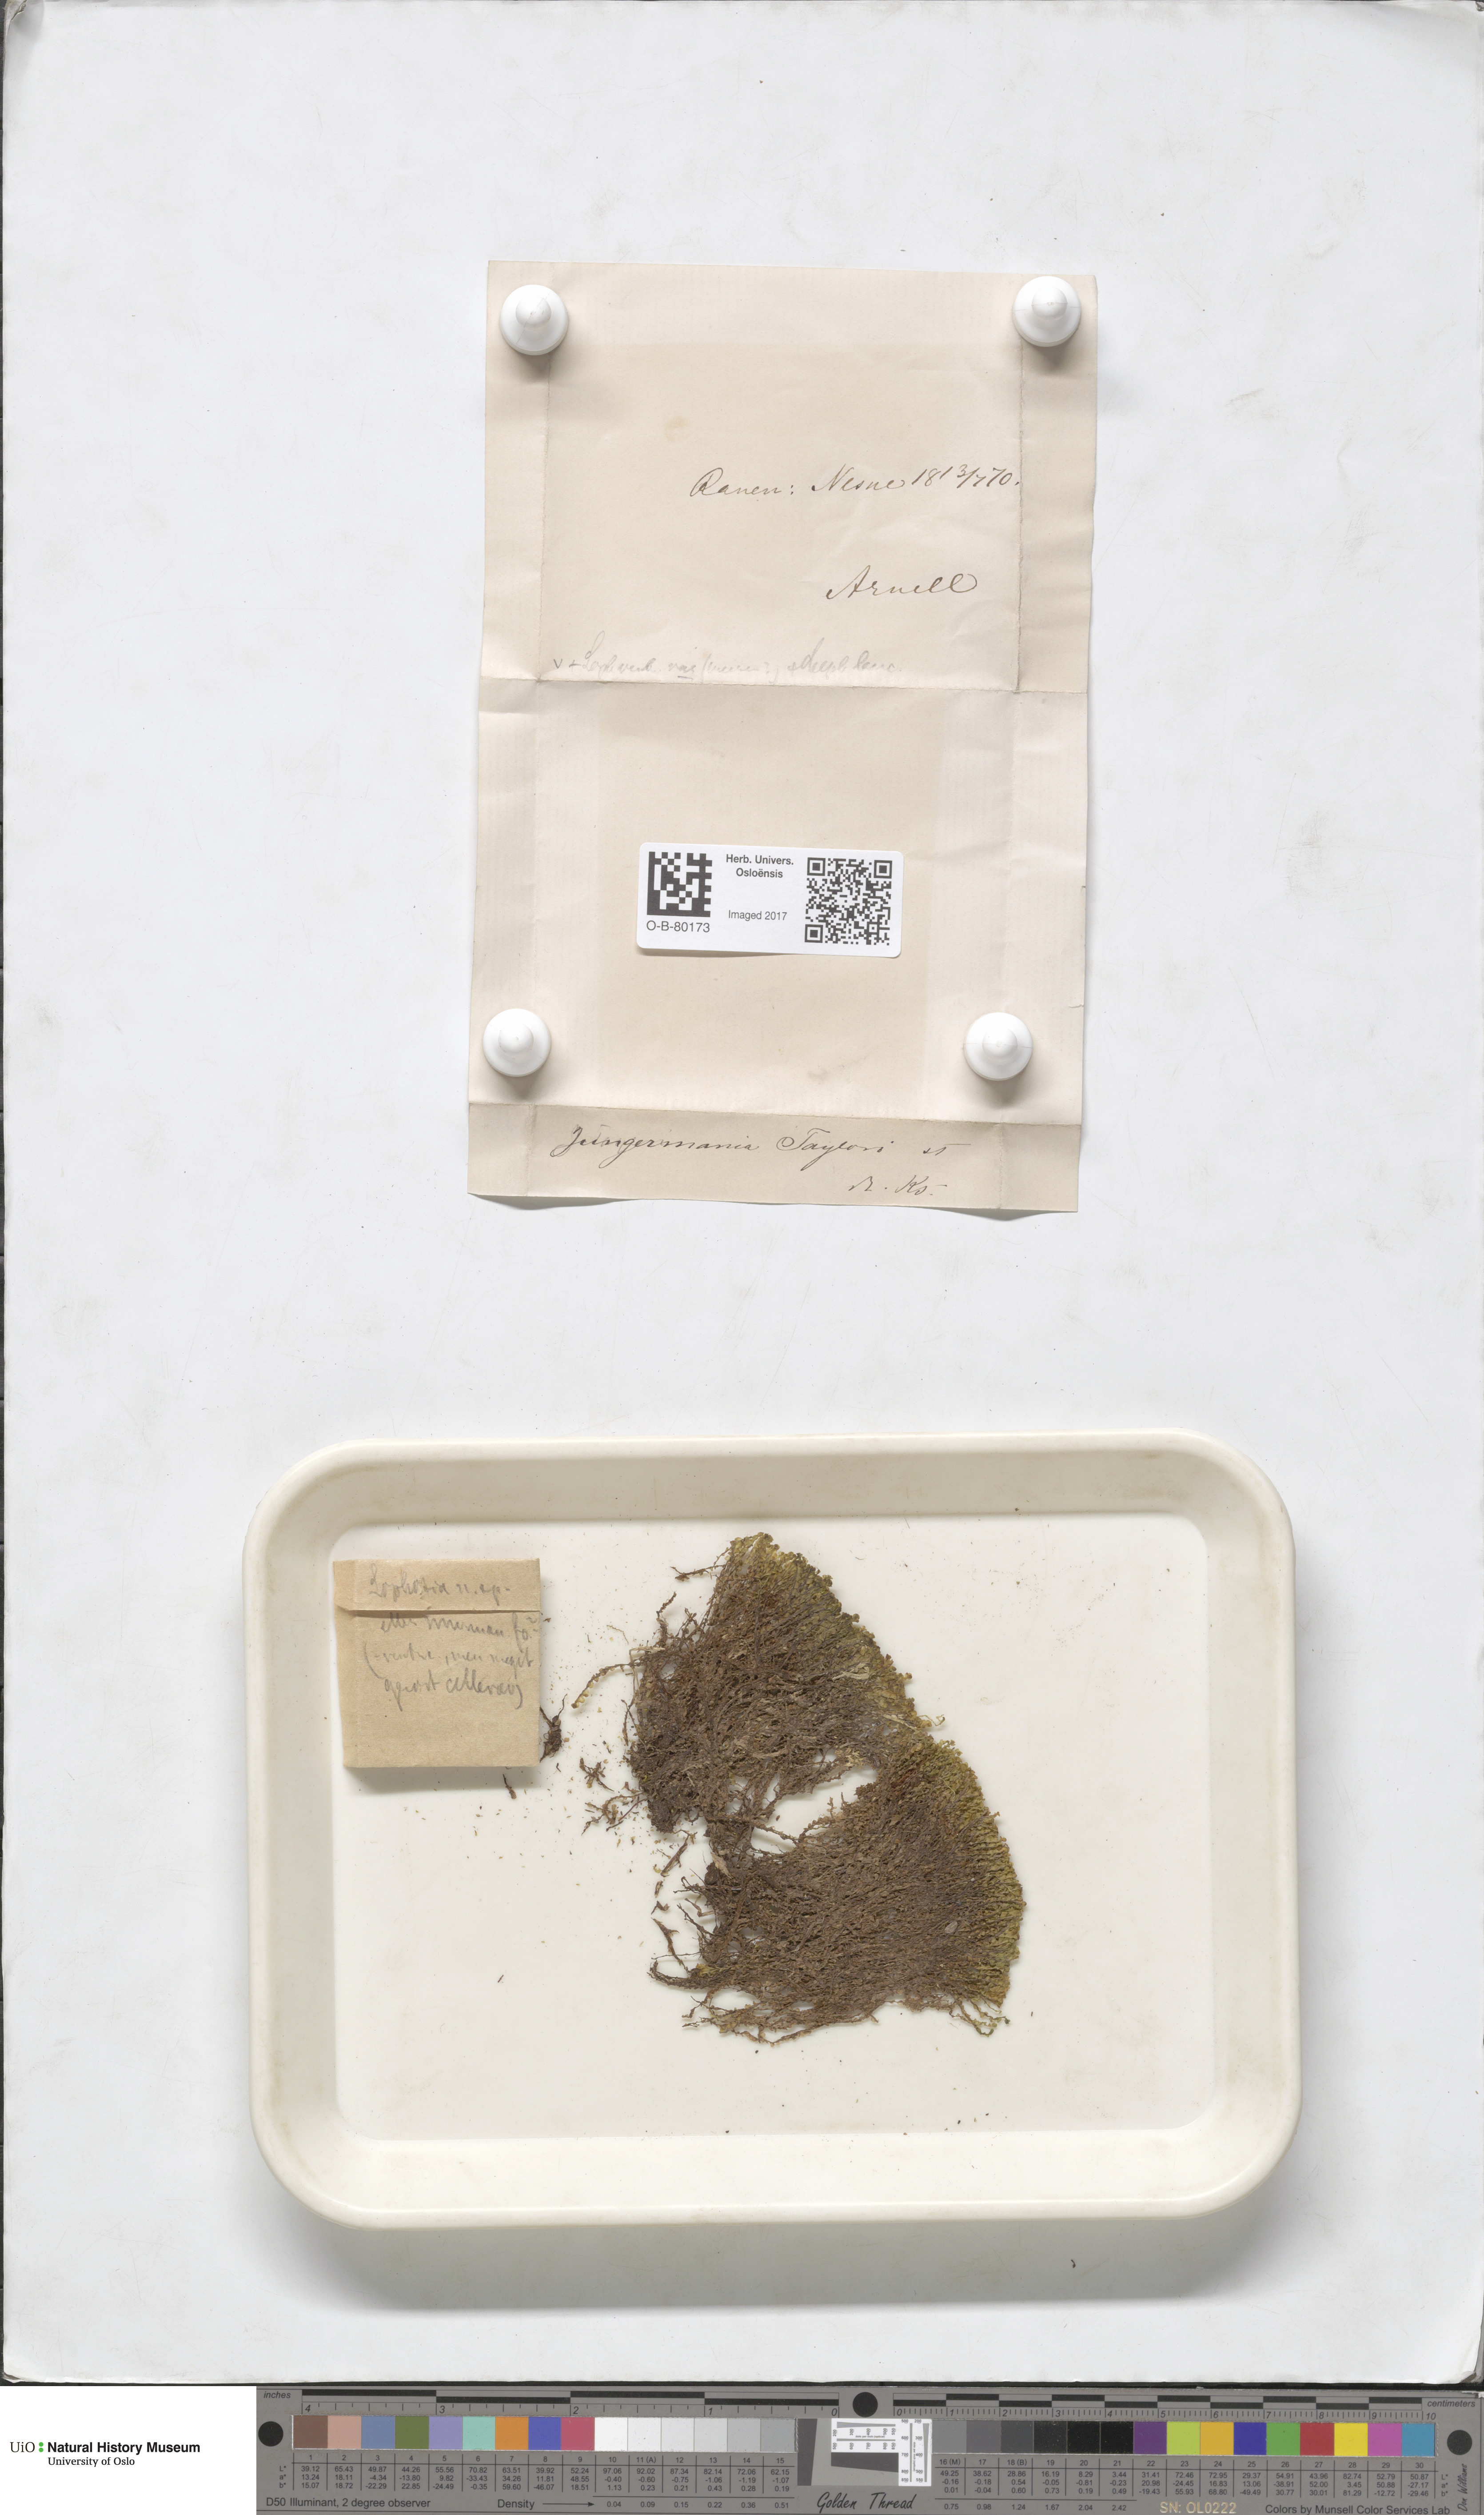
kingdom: Plantae
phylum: Marchantiophyta
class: Jungermanniopsida
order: Jungermanniales
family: Myliaceae
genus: Mylia
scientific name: Mylia taylorii
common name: Taylor s flapwort
